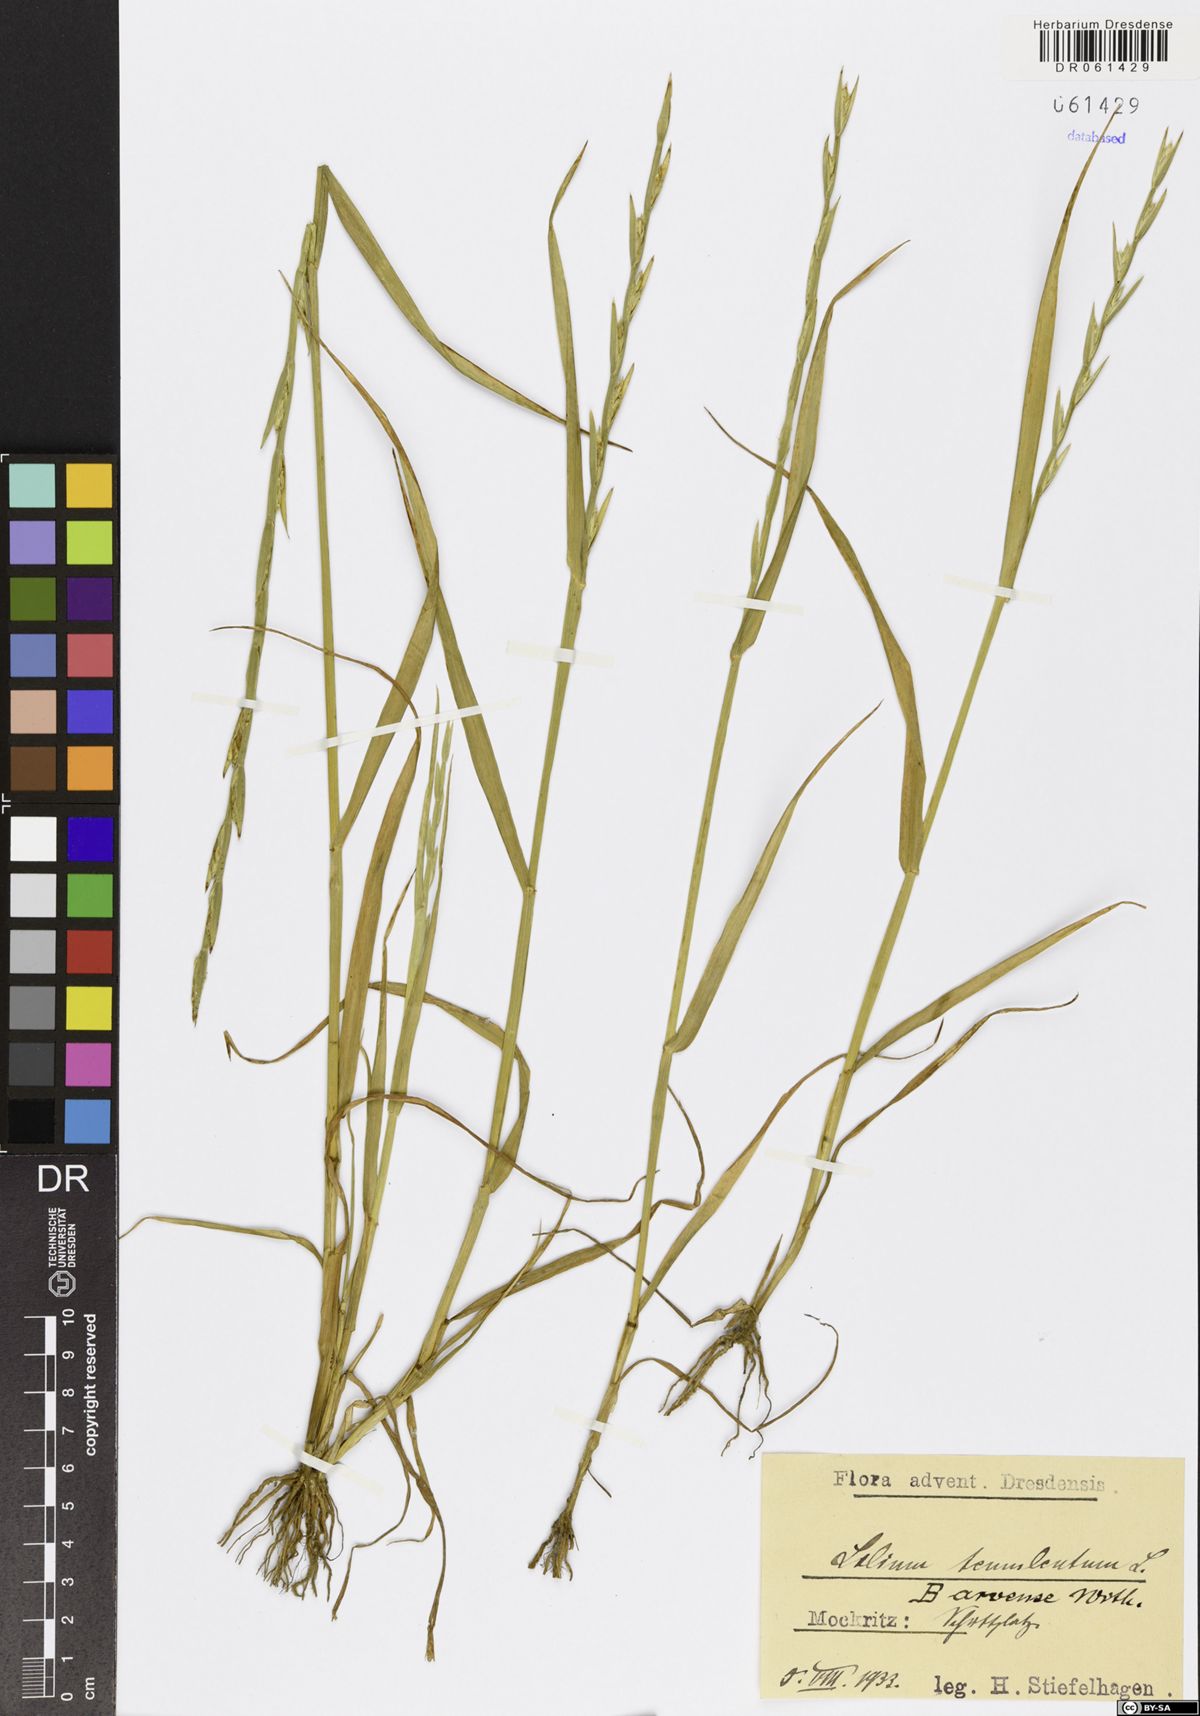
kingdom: Plantae
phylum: Tracheophyta
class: Liliopsida
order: Poales
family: Poaceae
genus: Lolium
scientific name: Lolium temulentum
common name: Darnel
